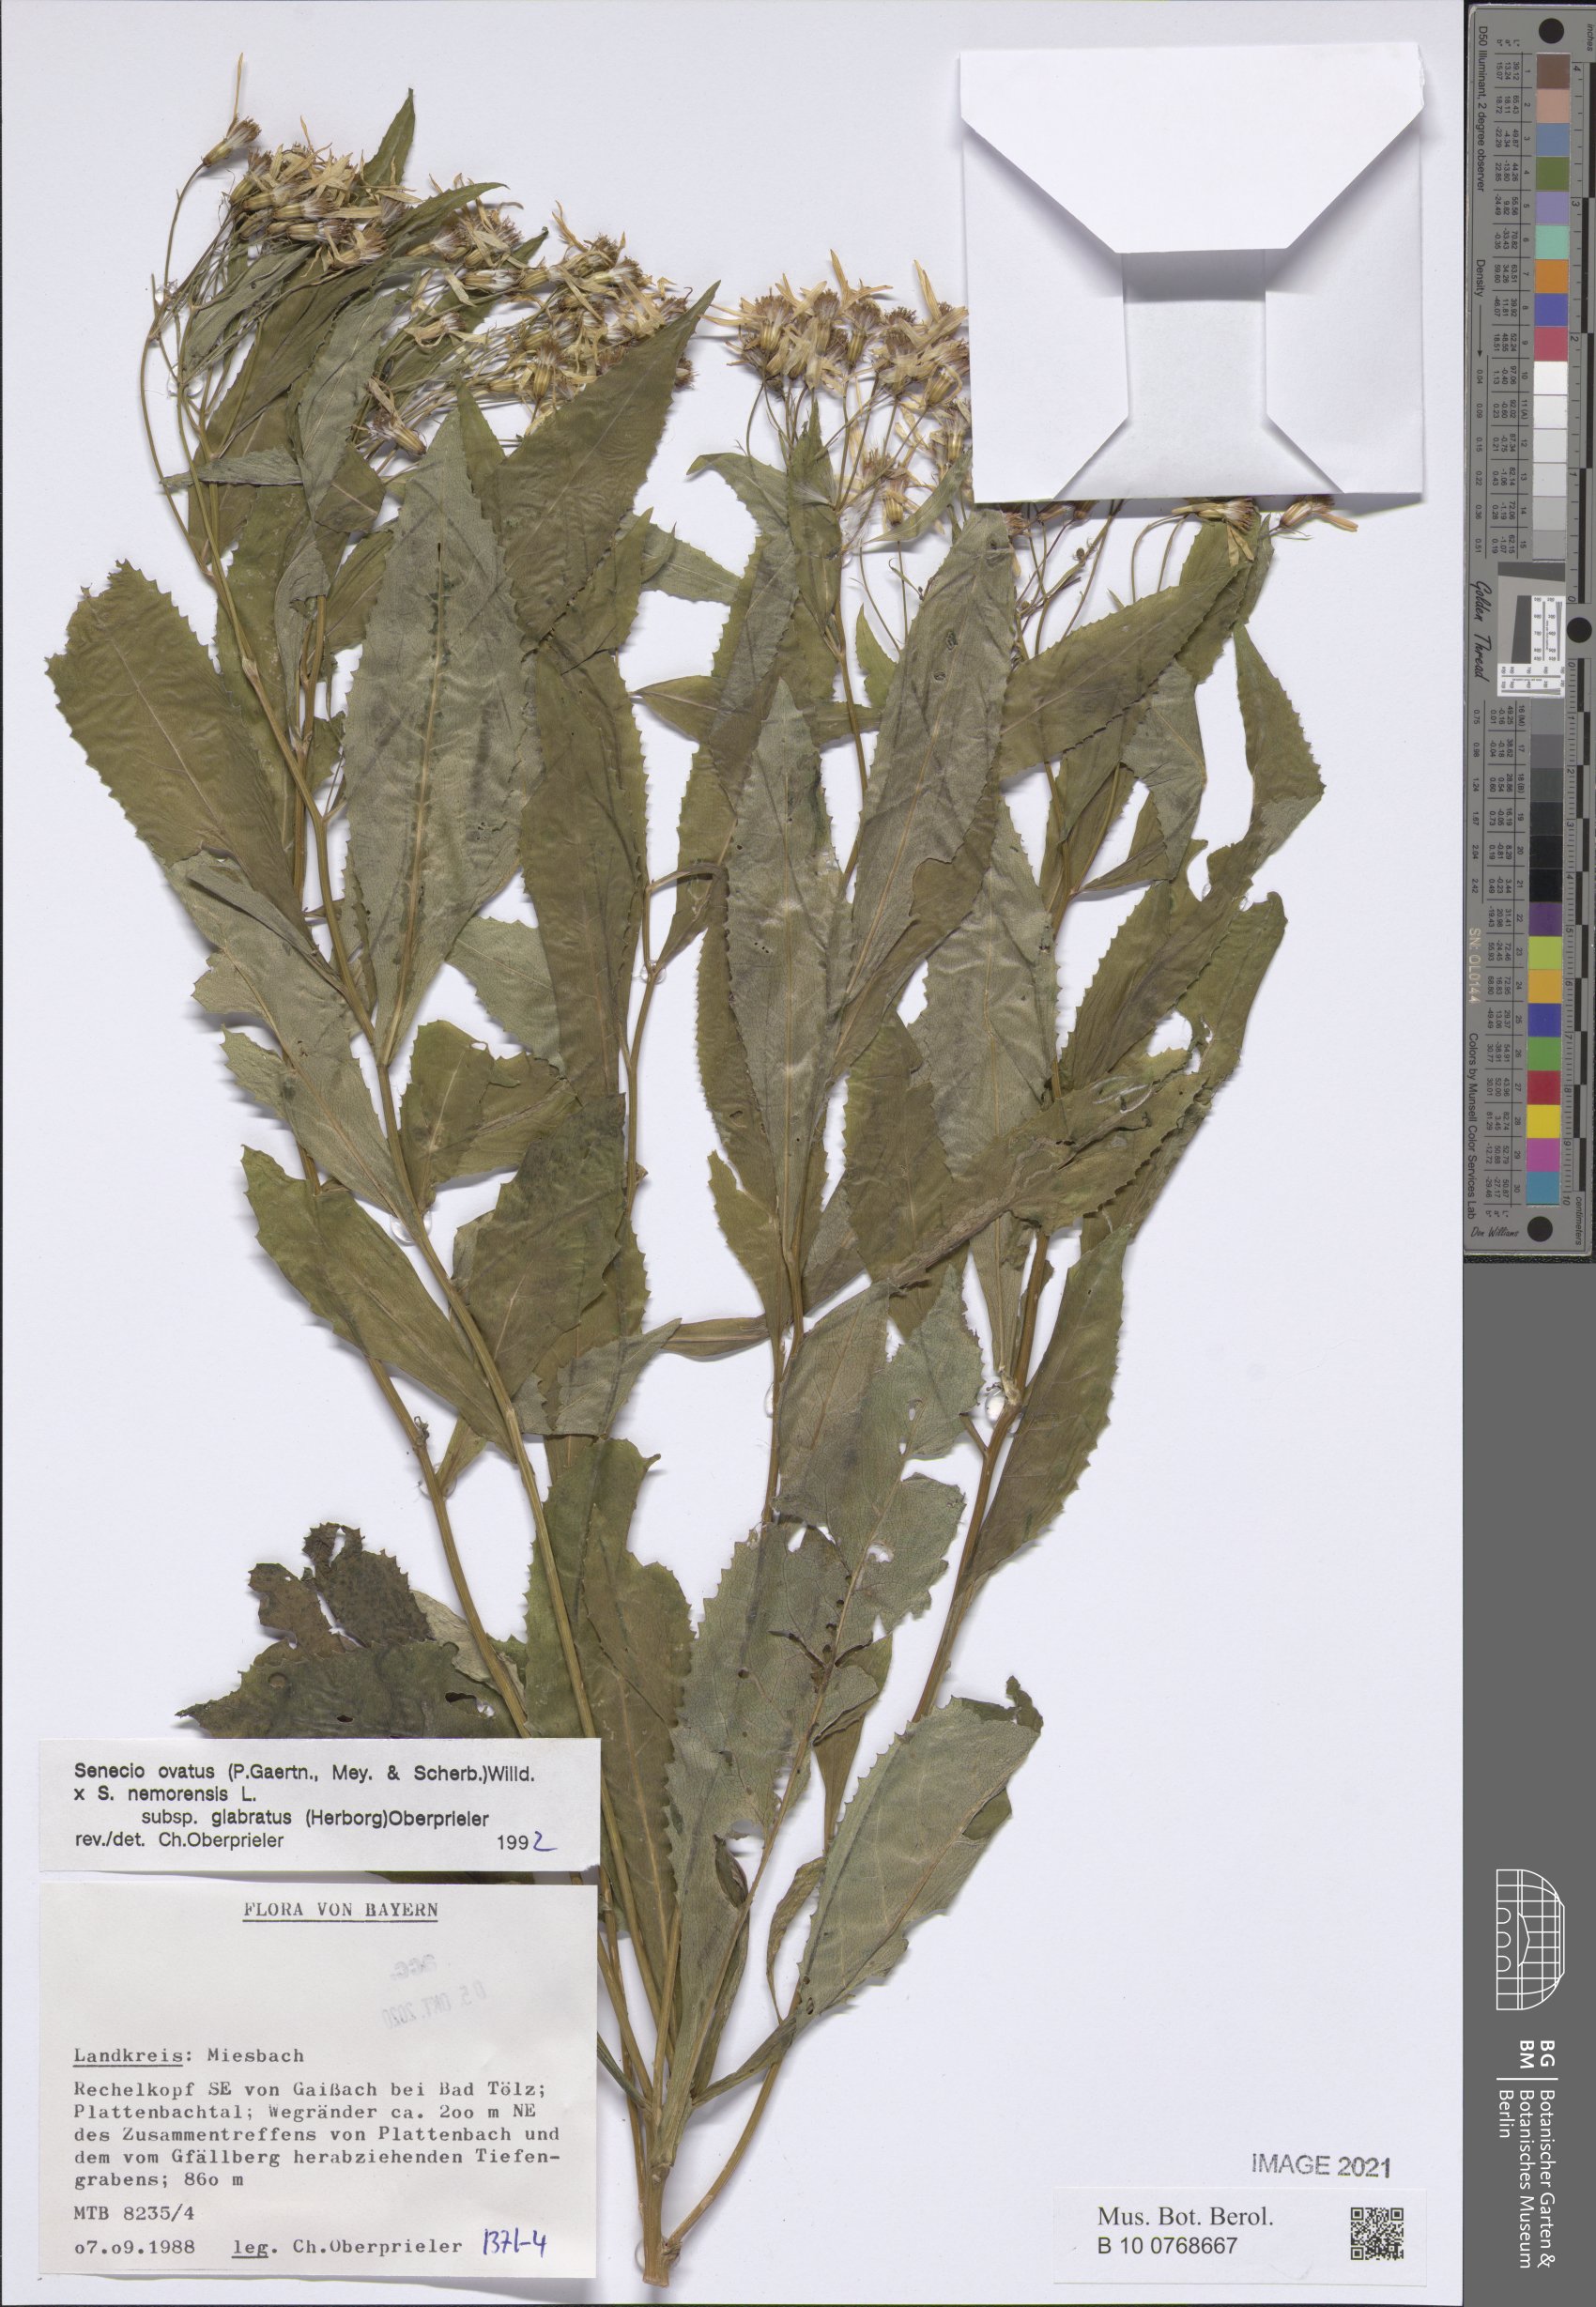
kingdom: Plantae
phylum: Tracheophyta
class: Magnoliopsida
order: Asterales
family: Asteraceae
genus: Senecio
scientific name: Senecio ovatus
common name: Wood ragwort
